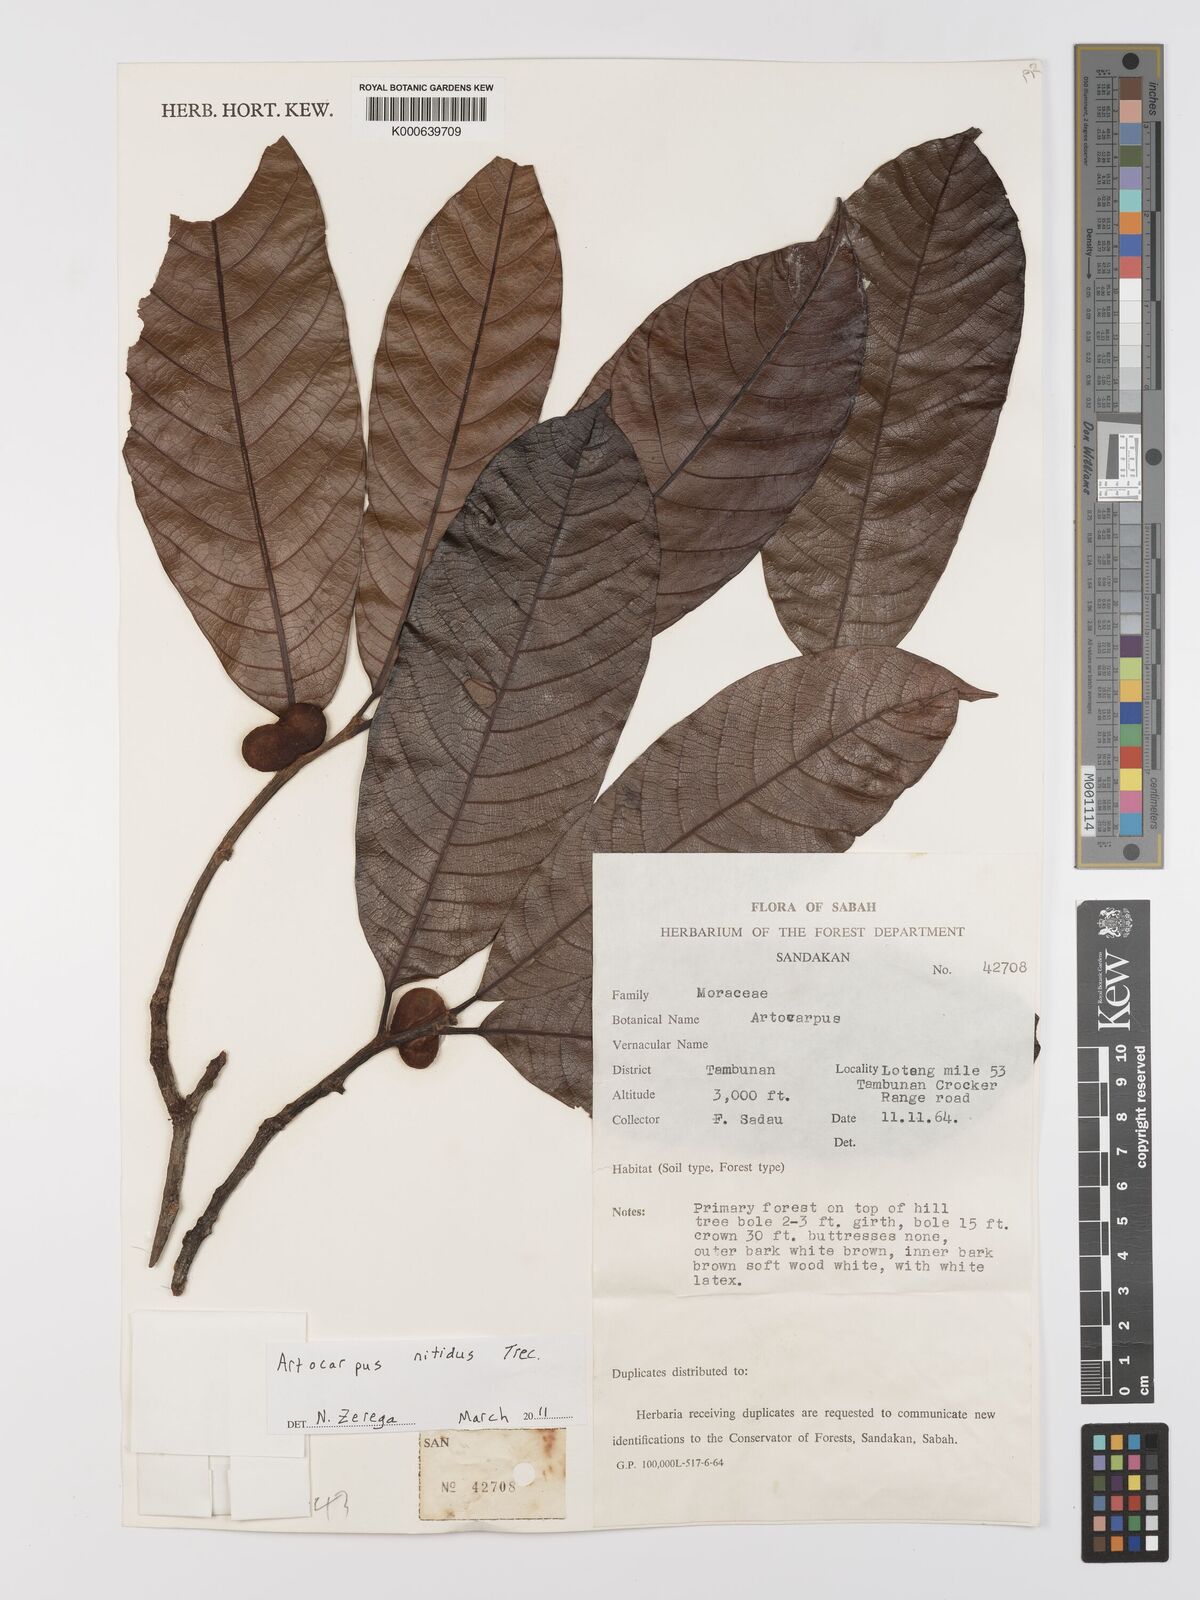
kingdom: Plantae
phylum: Tracheophyta
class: Magnoliopsida
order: Rosales
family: Moraceae
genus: Artocarpus
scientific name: Artocarpus lamellosus
